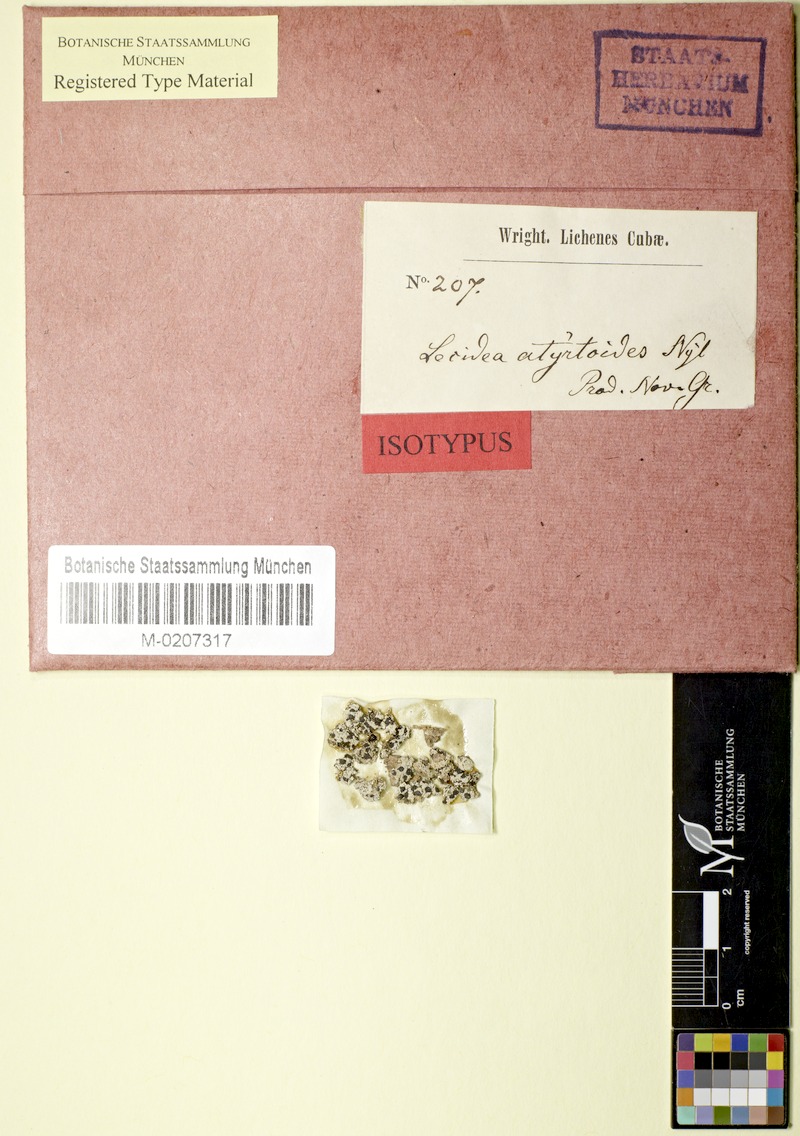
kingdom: Fungi
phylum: Ascomycota
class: Lecanoromycetes
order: Lecanorales
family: Ramalinaceae
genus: Bacidia
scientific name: Bacidia
